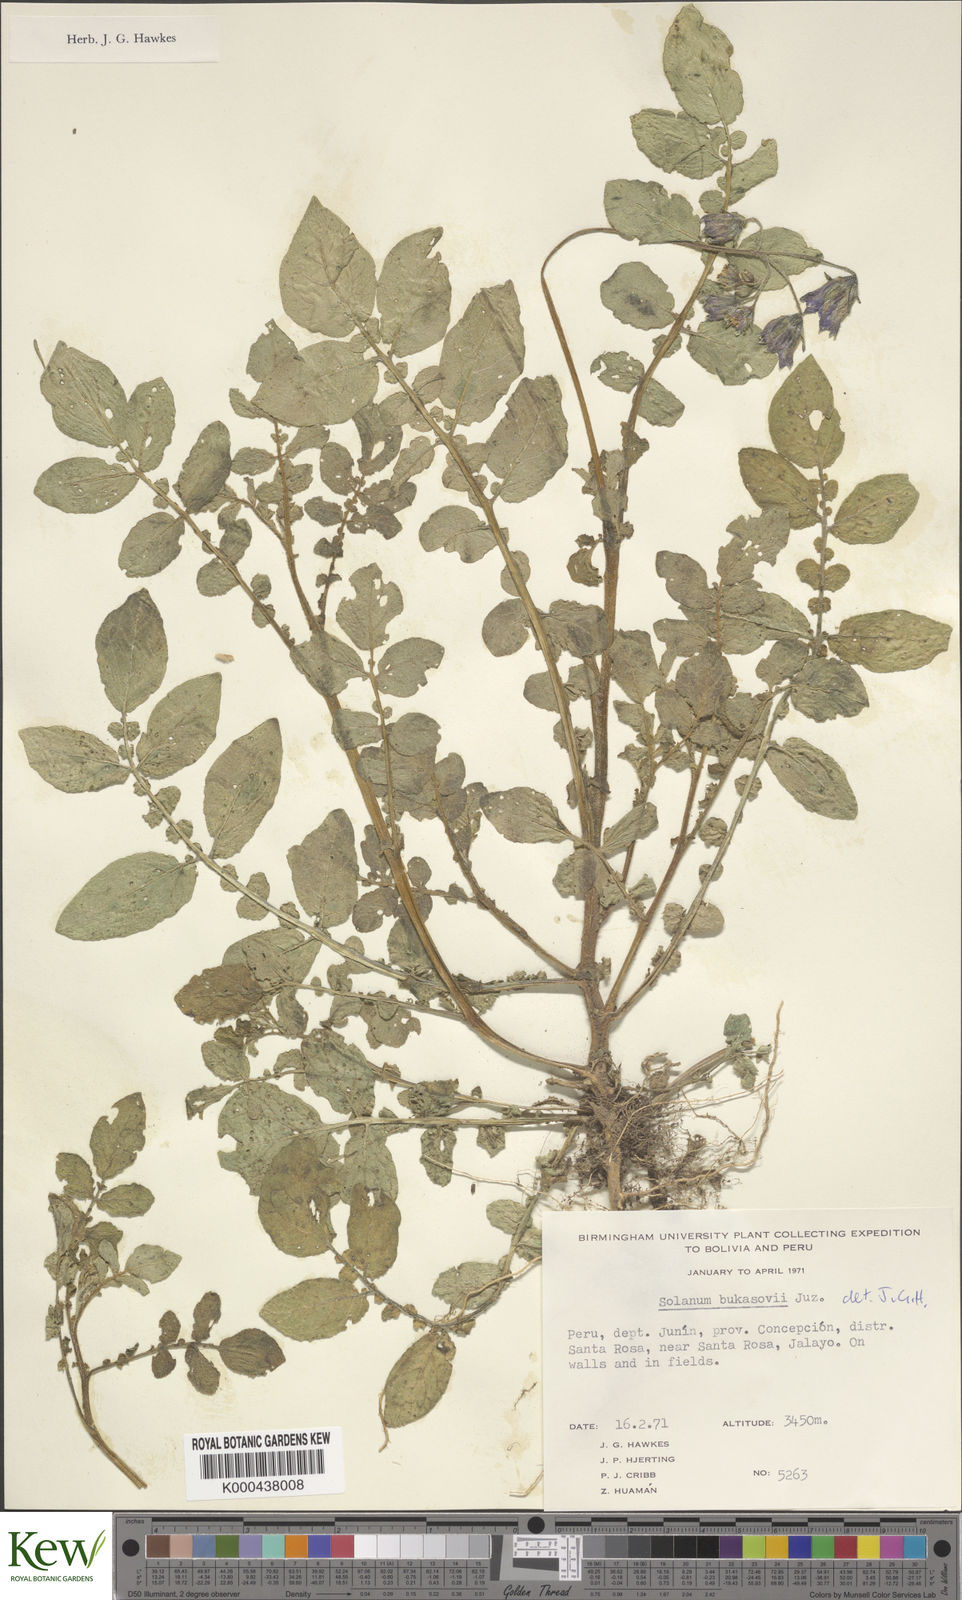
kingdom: Plantae
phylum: Tracheophyta
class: Magnoliopsida
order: Solanales
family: Solanaceae
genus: Solanum
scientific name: Solanum candolleanum
